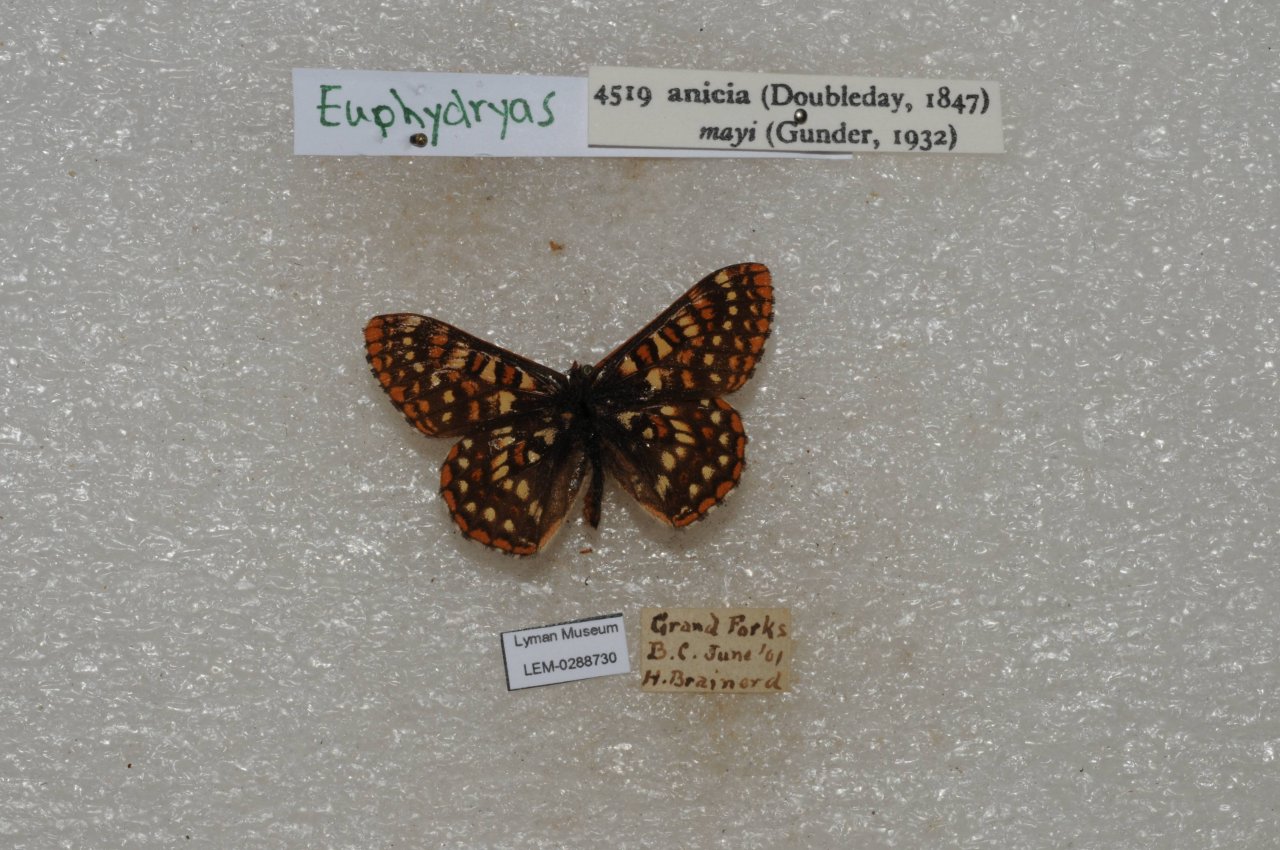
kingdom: Animalia
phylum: Arthropoda
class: Insecta
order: Lepidoptera
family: Nymphalidae
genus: Occidryas
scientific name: Occidryas anicia
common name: Anicia Checkerspot
